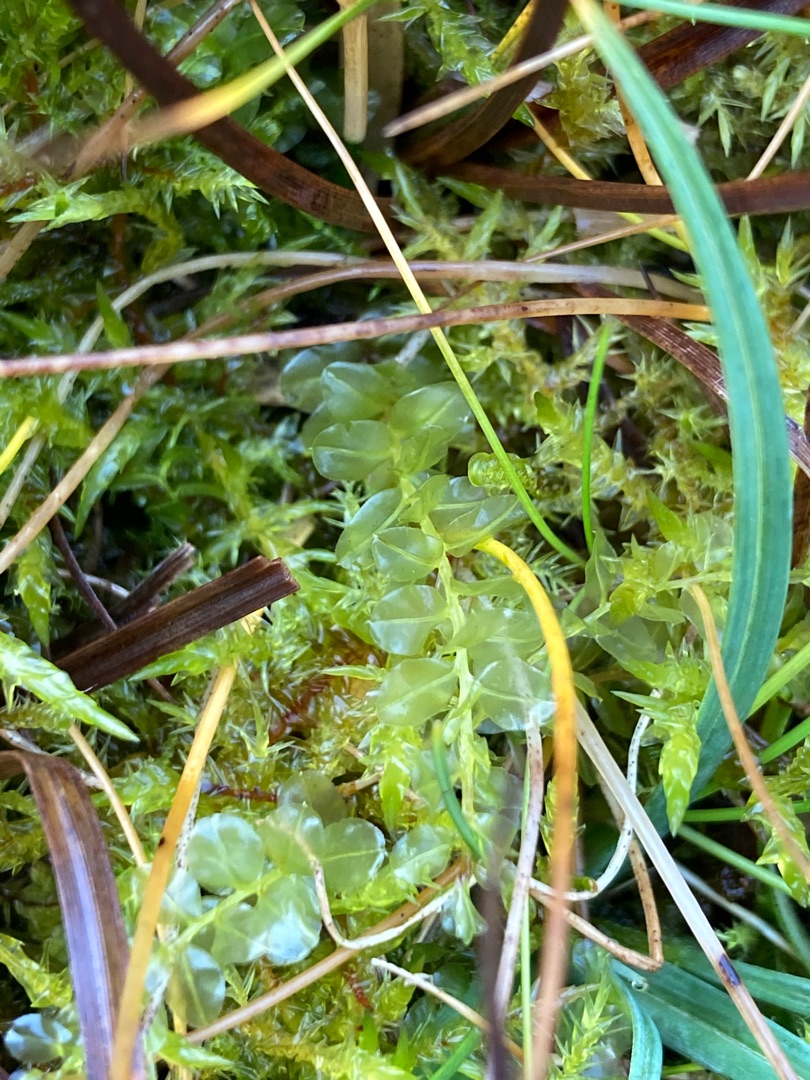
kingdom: Plantae
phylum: Bryophyta
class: Bryopsida
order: Bryales
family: Mniaceae
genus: Plagiomnium
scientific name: Plagiomnium elatum
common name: Raslende krybstjerne
